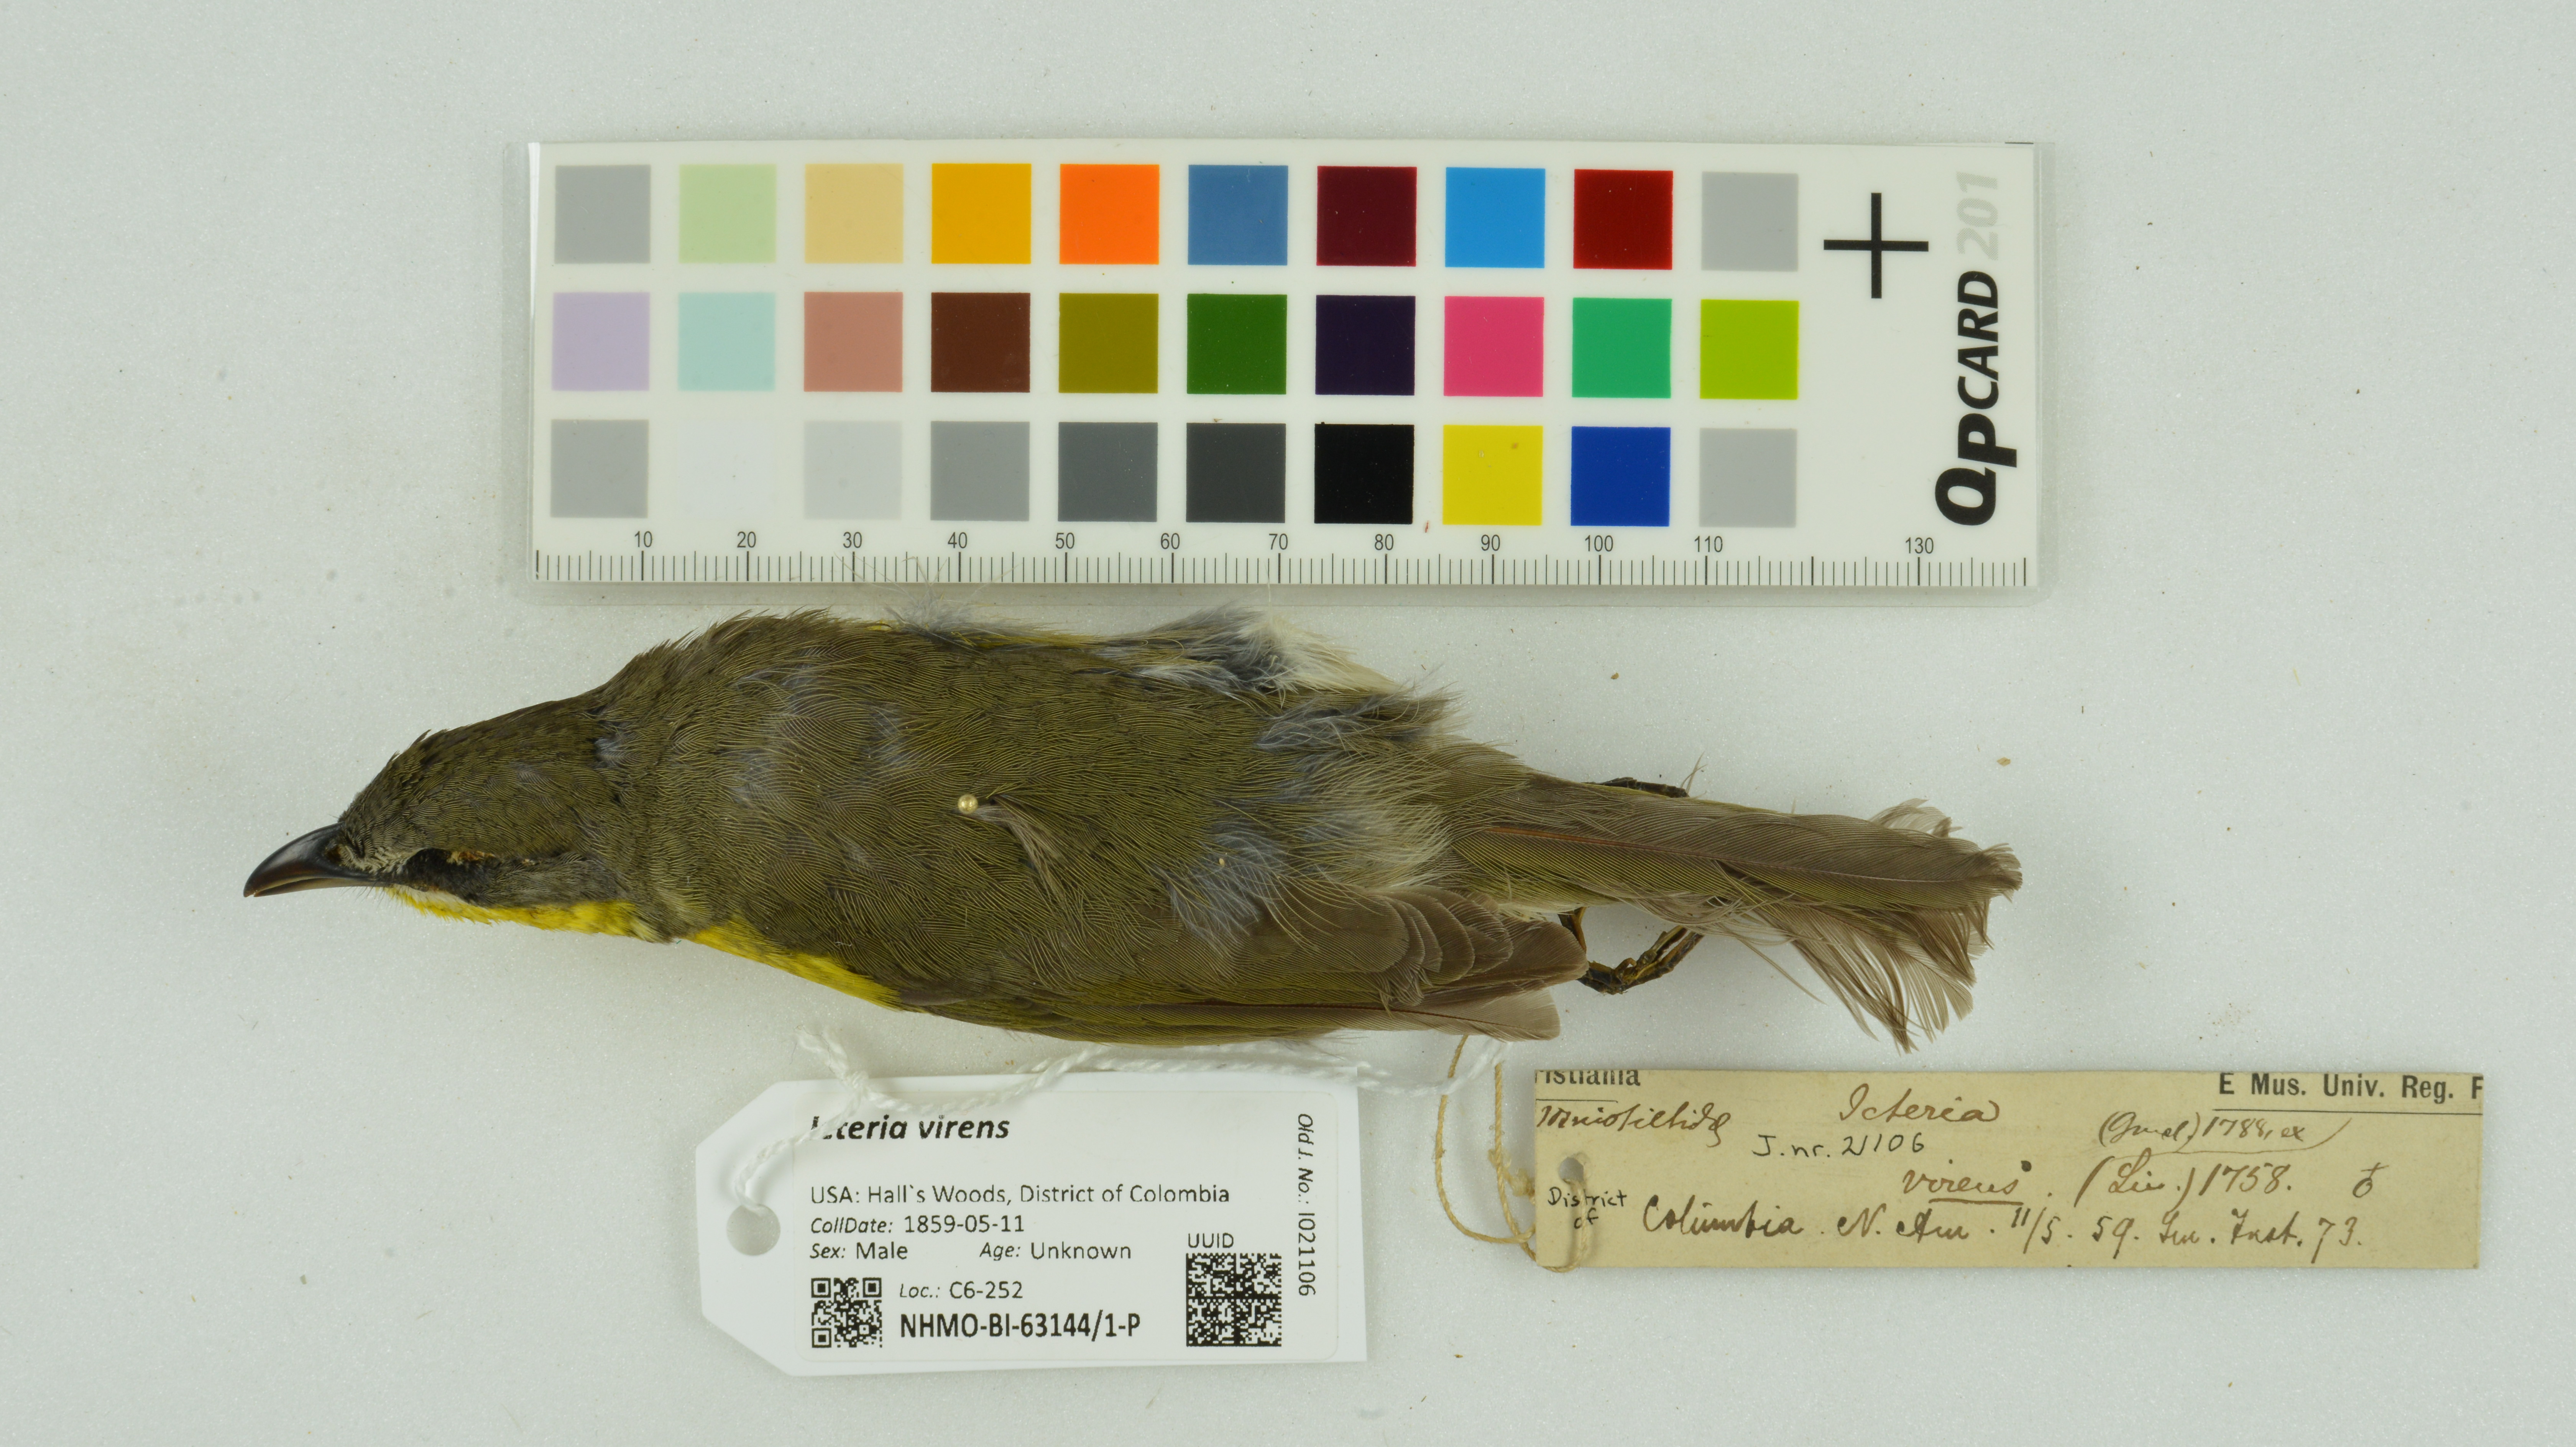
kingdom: Animalia
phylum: Chordata
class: Aves
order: Passeriformes
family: Parulidae
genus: Icteria
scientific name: Icteria virens
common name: Yellow-breasted chat
